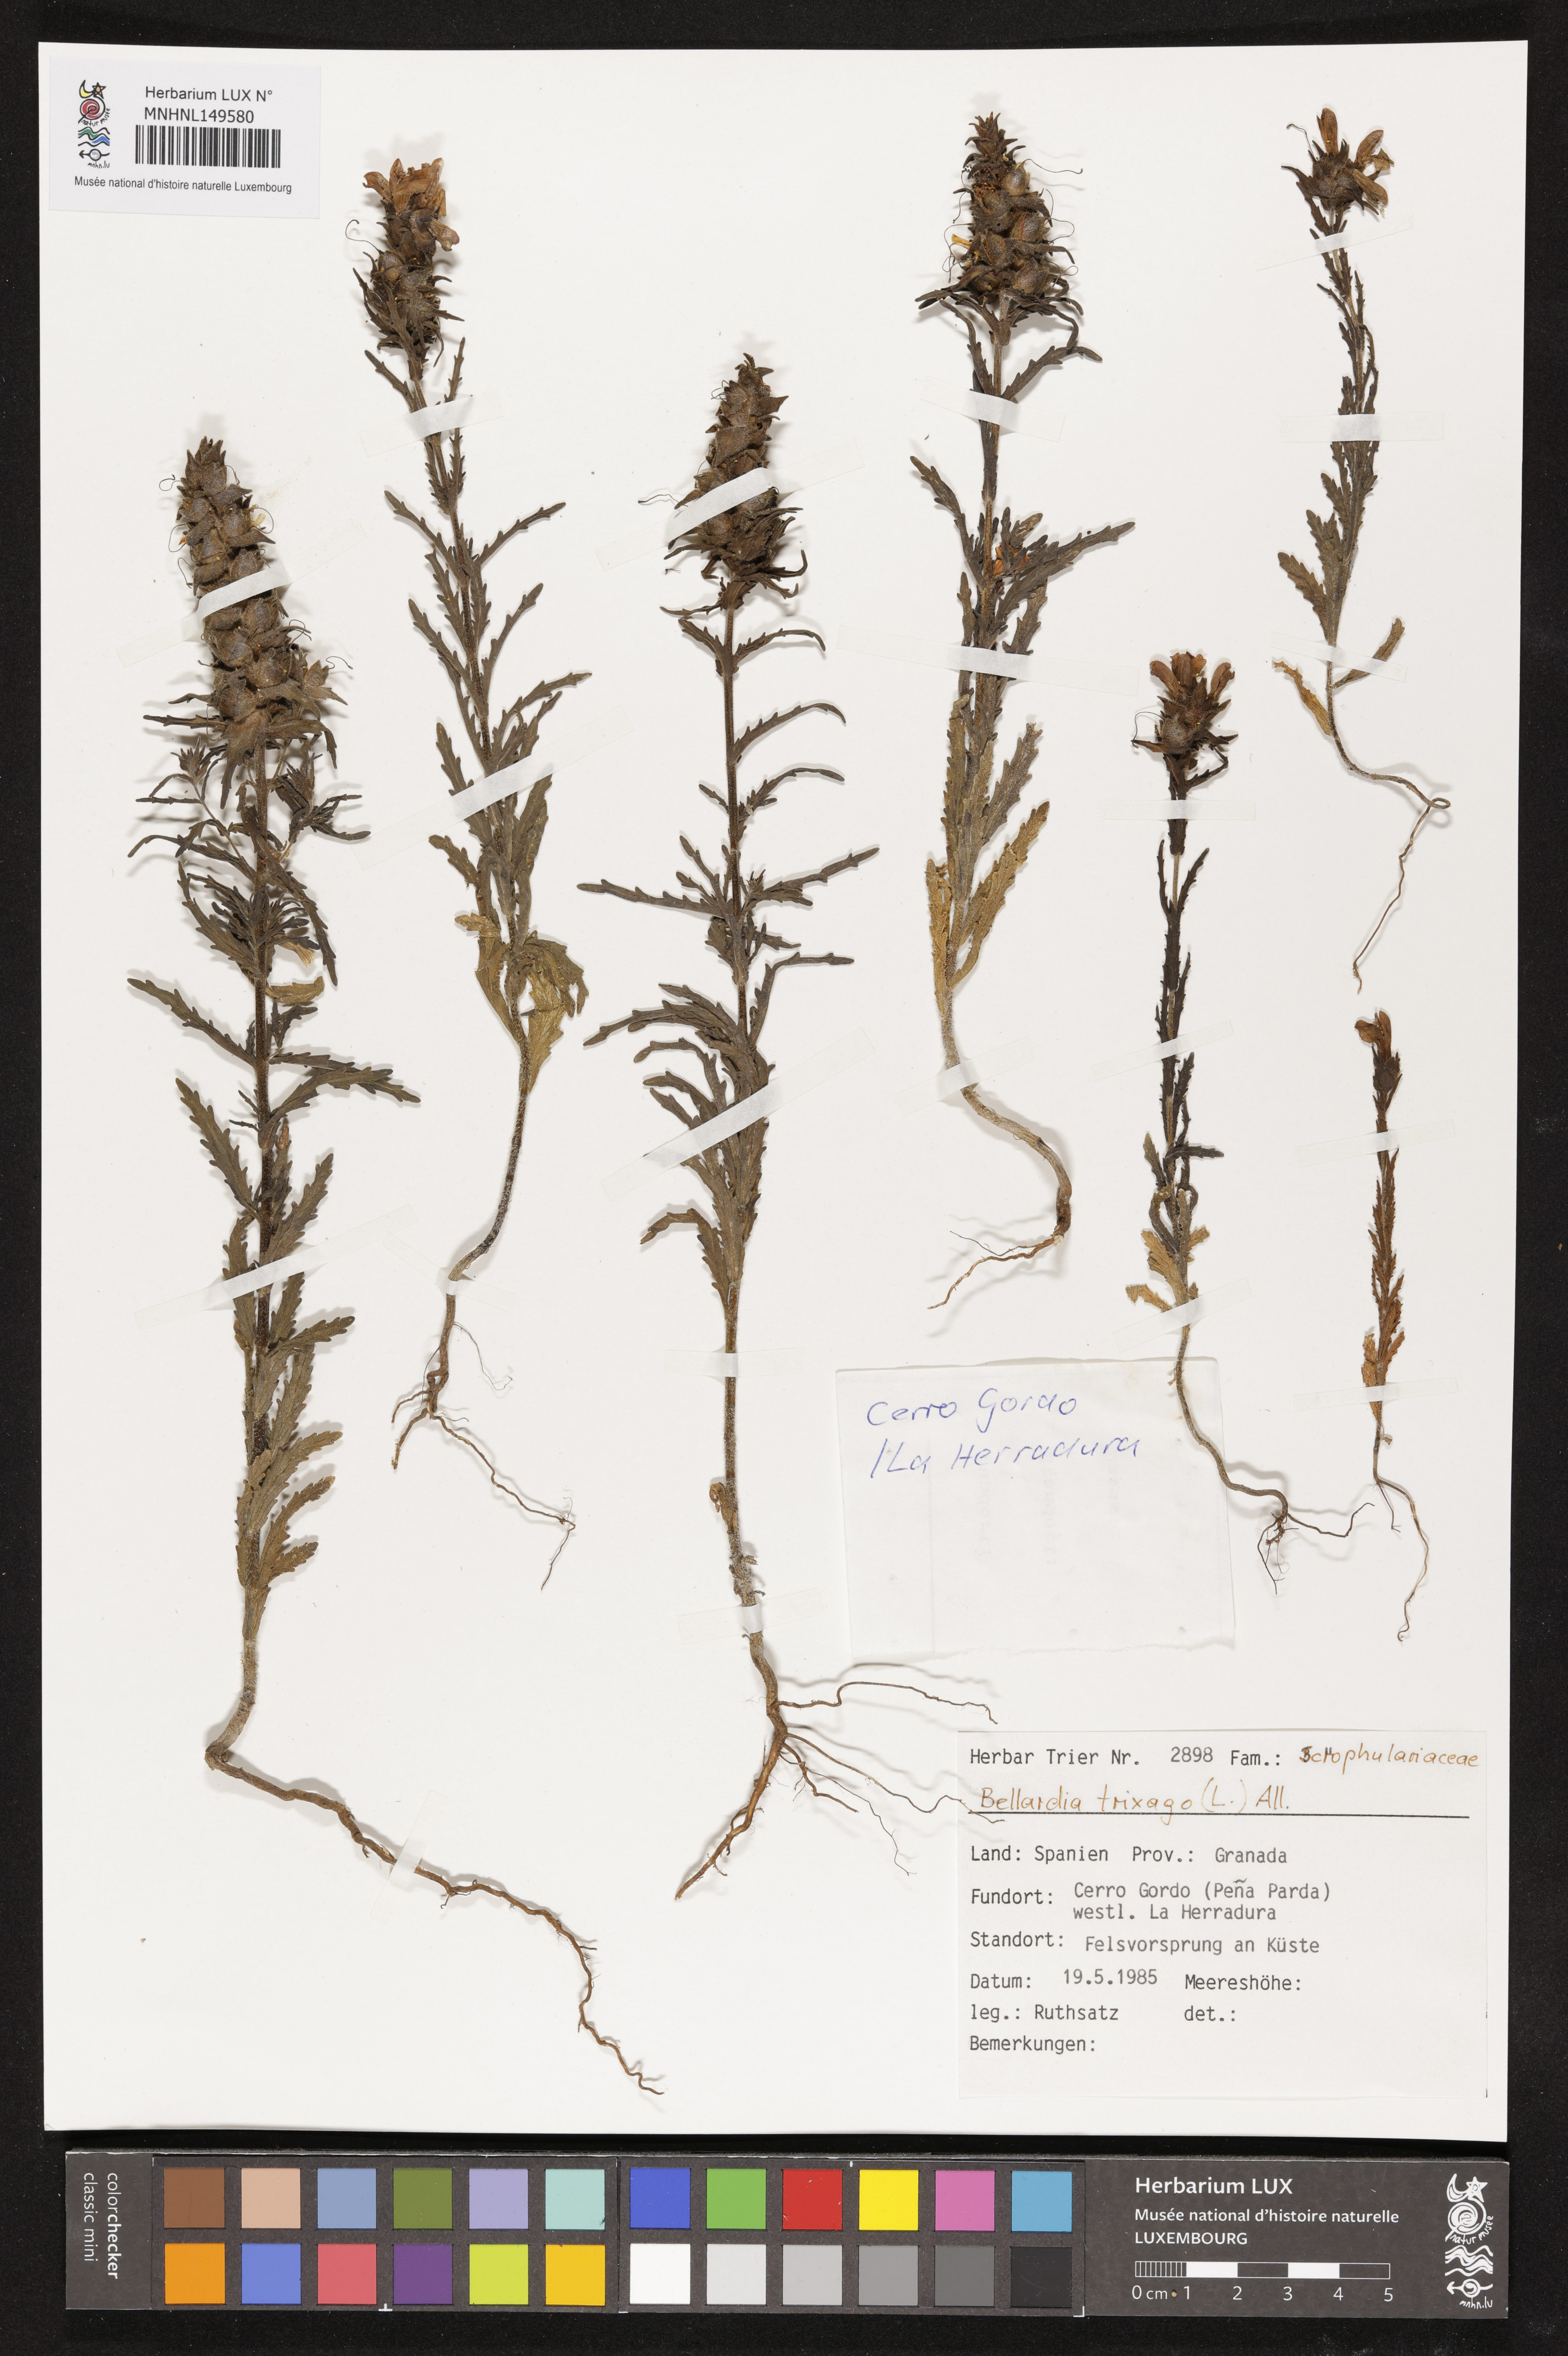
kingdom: Plantae
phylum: Tracheophyta
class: Magnoliopsida
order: Lamiales
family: Orobanchaceae
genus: Bellardia
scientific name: Bellardia trixago
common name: Mediterranean lineseed
